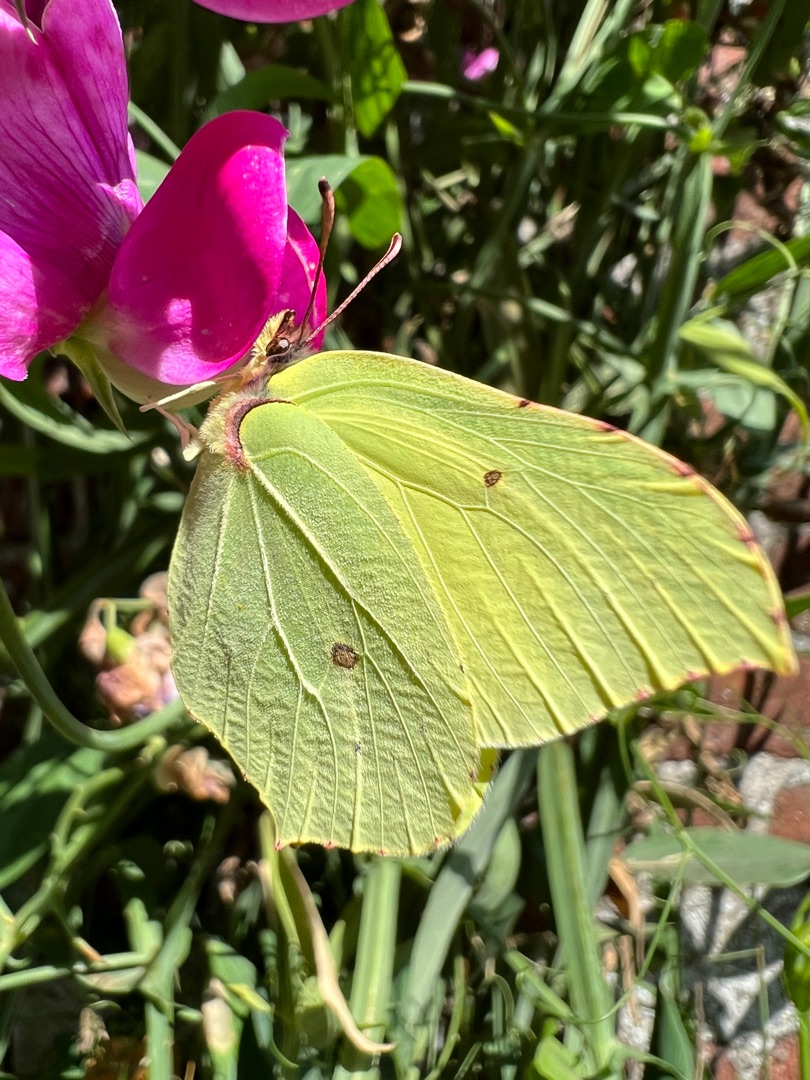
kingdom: Animalia
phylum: Arthropoda
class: Insecta
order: Lepidoptera
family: Pieridae
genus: Gonepteryx
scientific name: Gonepteryx rhamni
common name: Citronsommerfugl
